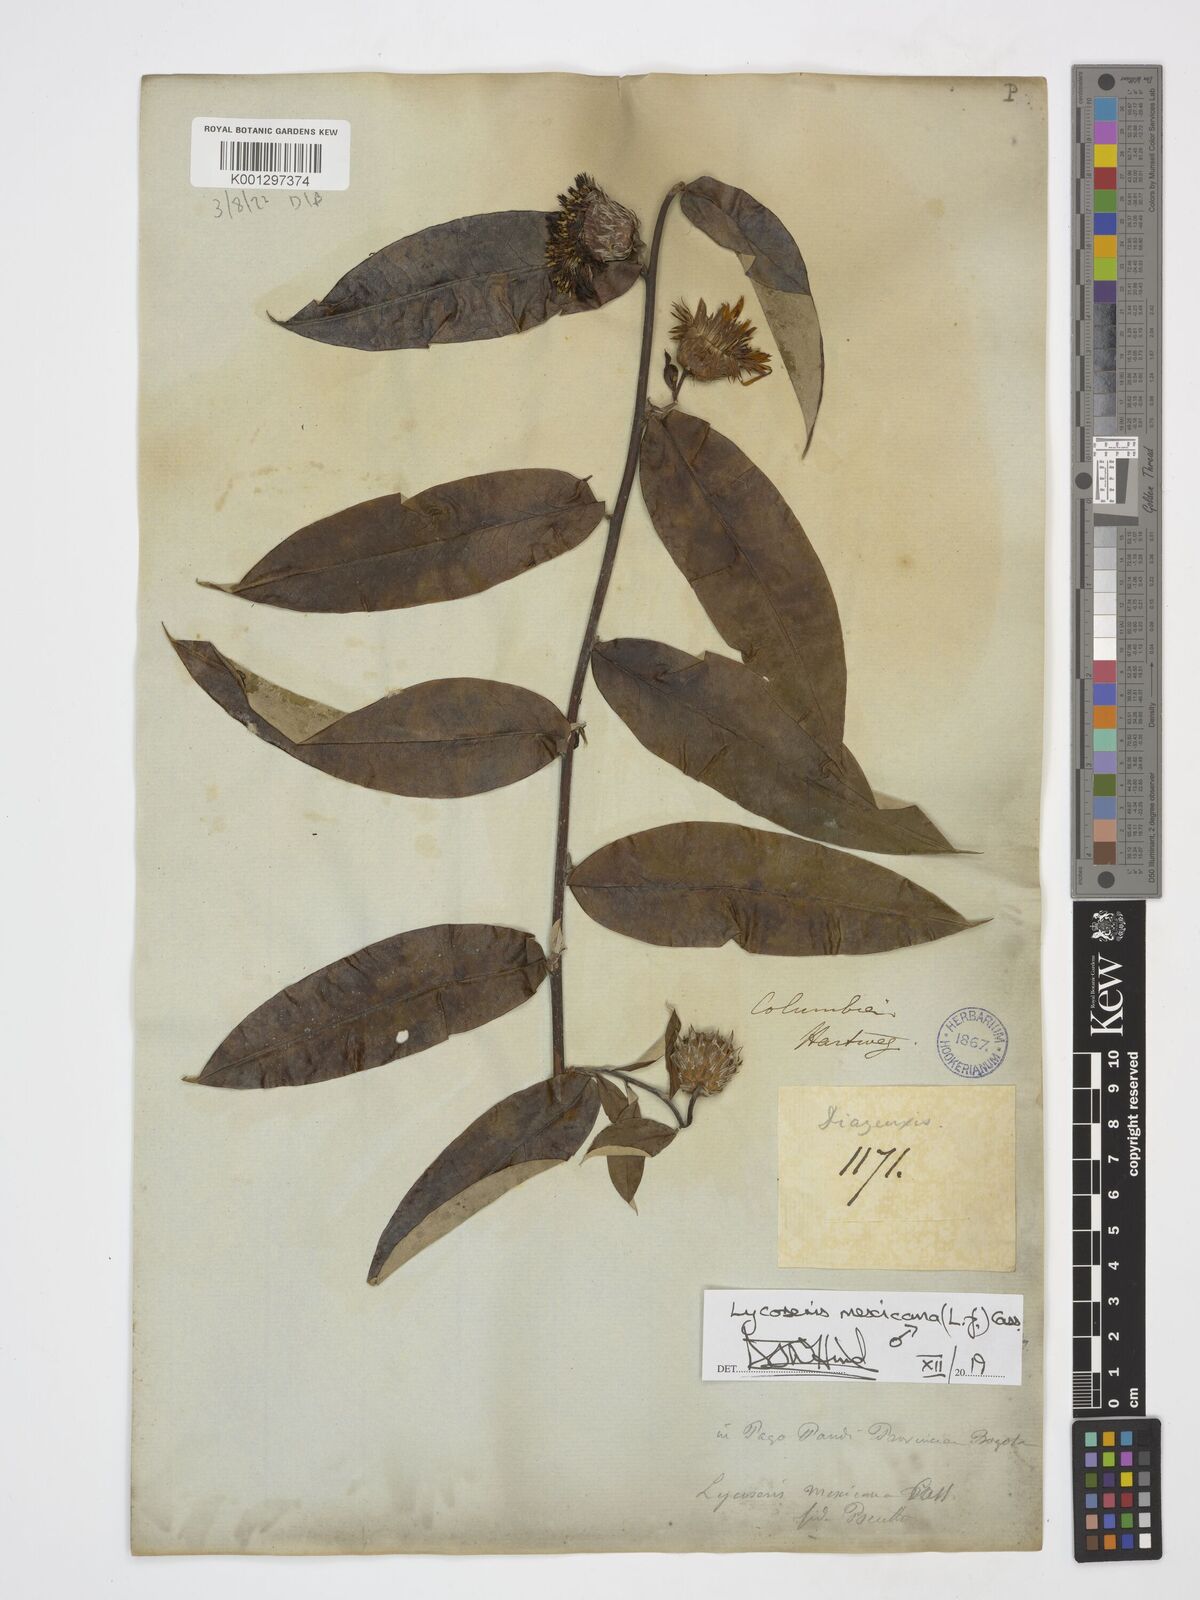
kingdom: Plantae
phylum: Tracheophyta
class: Magnoliopsida
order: Asterales
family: Asteraceae
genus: Lycoseris
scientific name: Lycoseris mexicana
